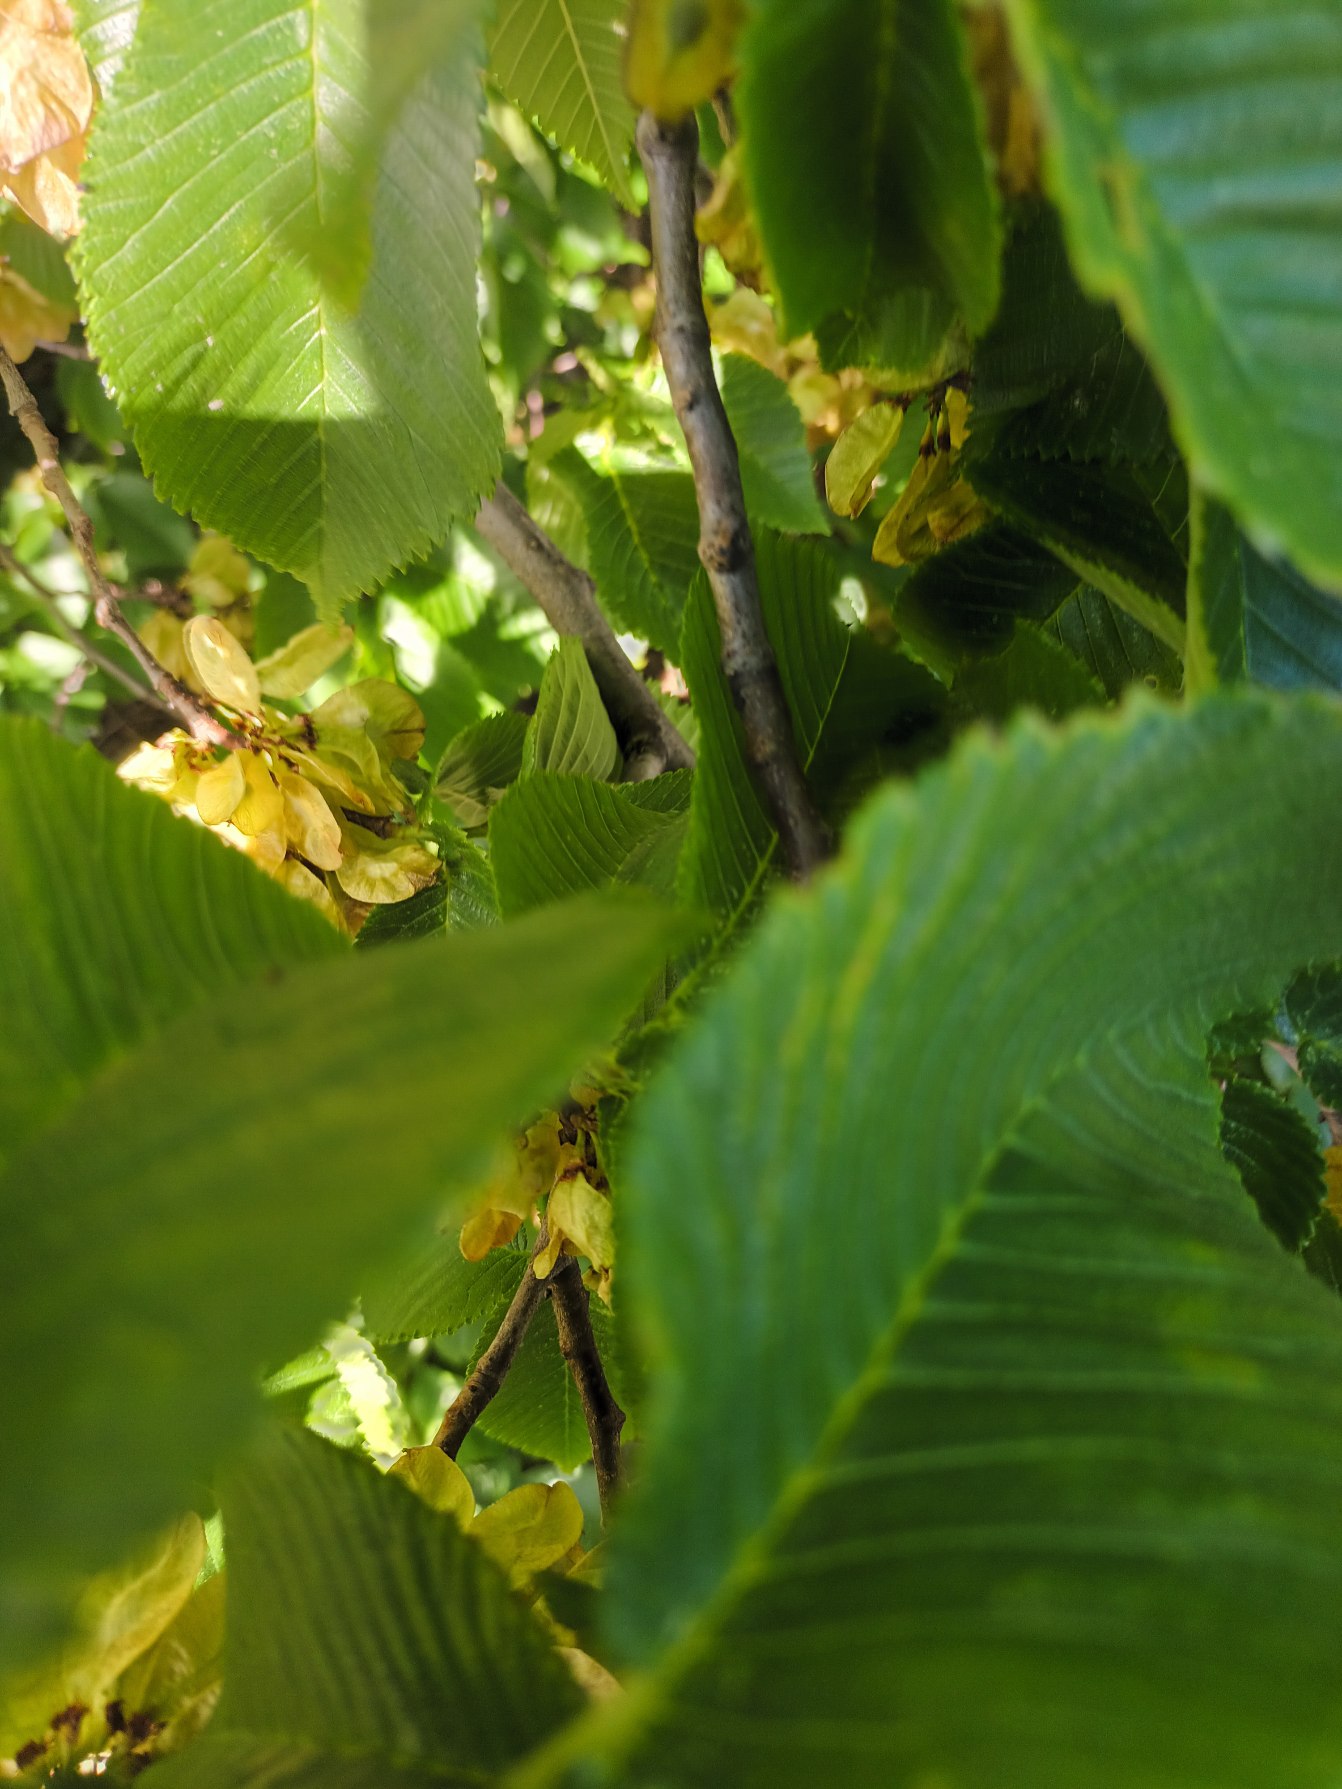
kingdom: Plantae
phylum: Tracheophyta
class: Magnoliopsida
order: Rosales
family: Ulmaceae
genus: Ulmus
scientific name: Ulmus glabra
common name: Skov-elm/storbladet elm
